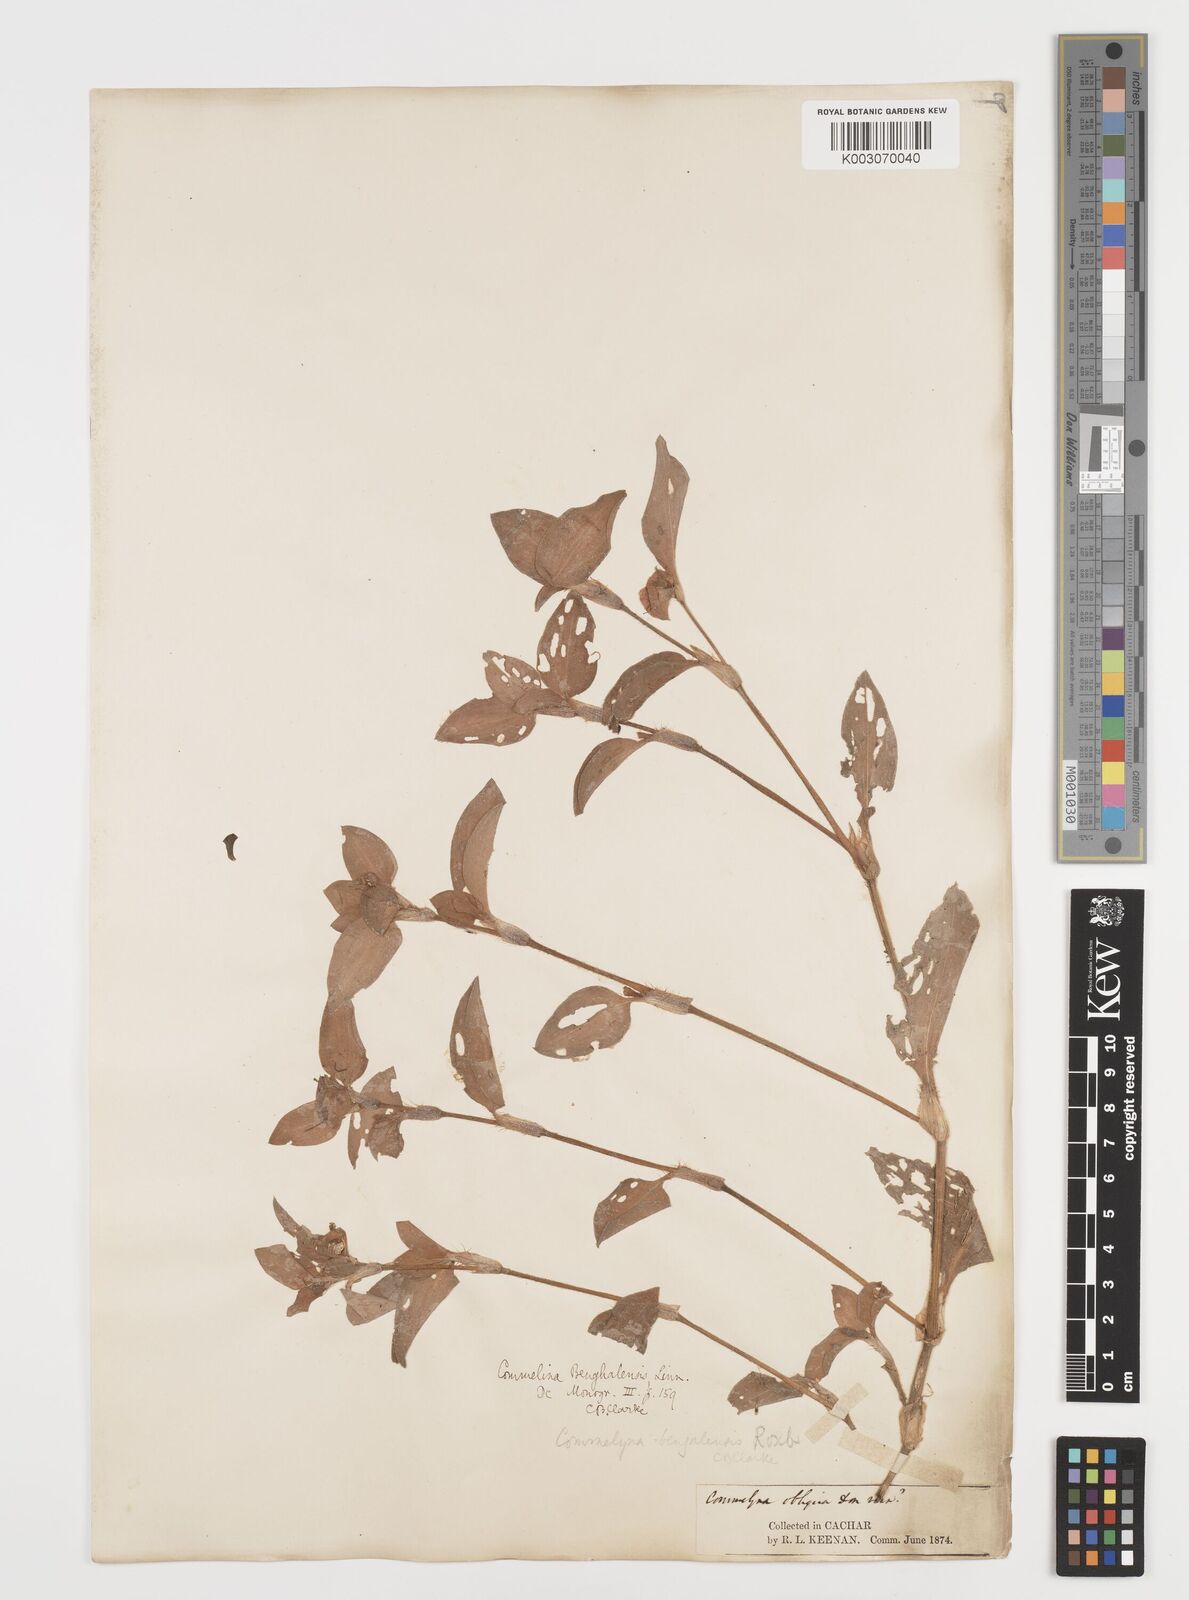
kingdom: Plantae
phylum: Tracheophyta
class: Liliopsida
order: Commelinales
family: Commelinaceae
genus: Commelina
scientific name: Commelina benghalensis
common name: Jio
